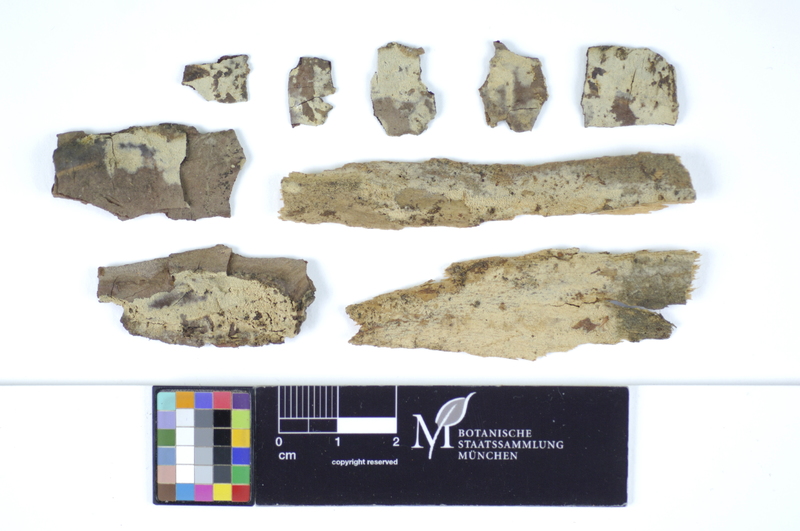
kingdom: Plantae
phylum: Tracheophyta
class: Pinopsida
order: Pinales
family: Pinaceae
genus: Pinus
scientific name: Pinus
